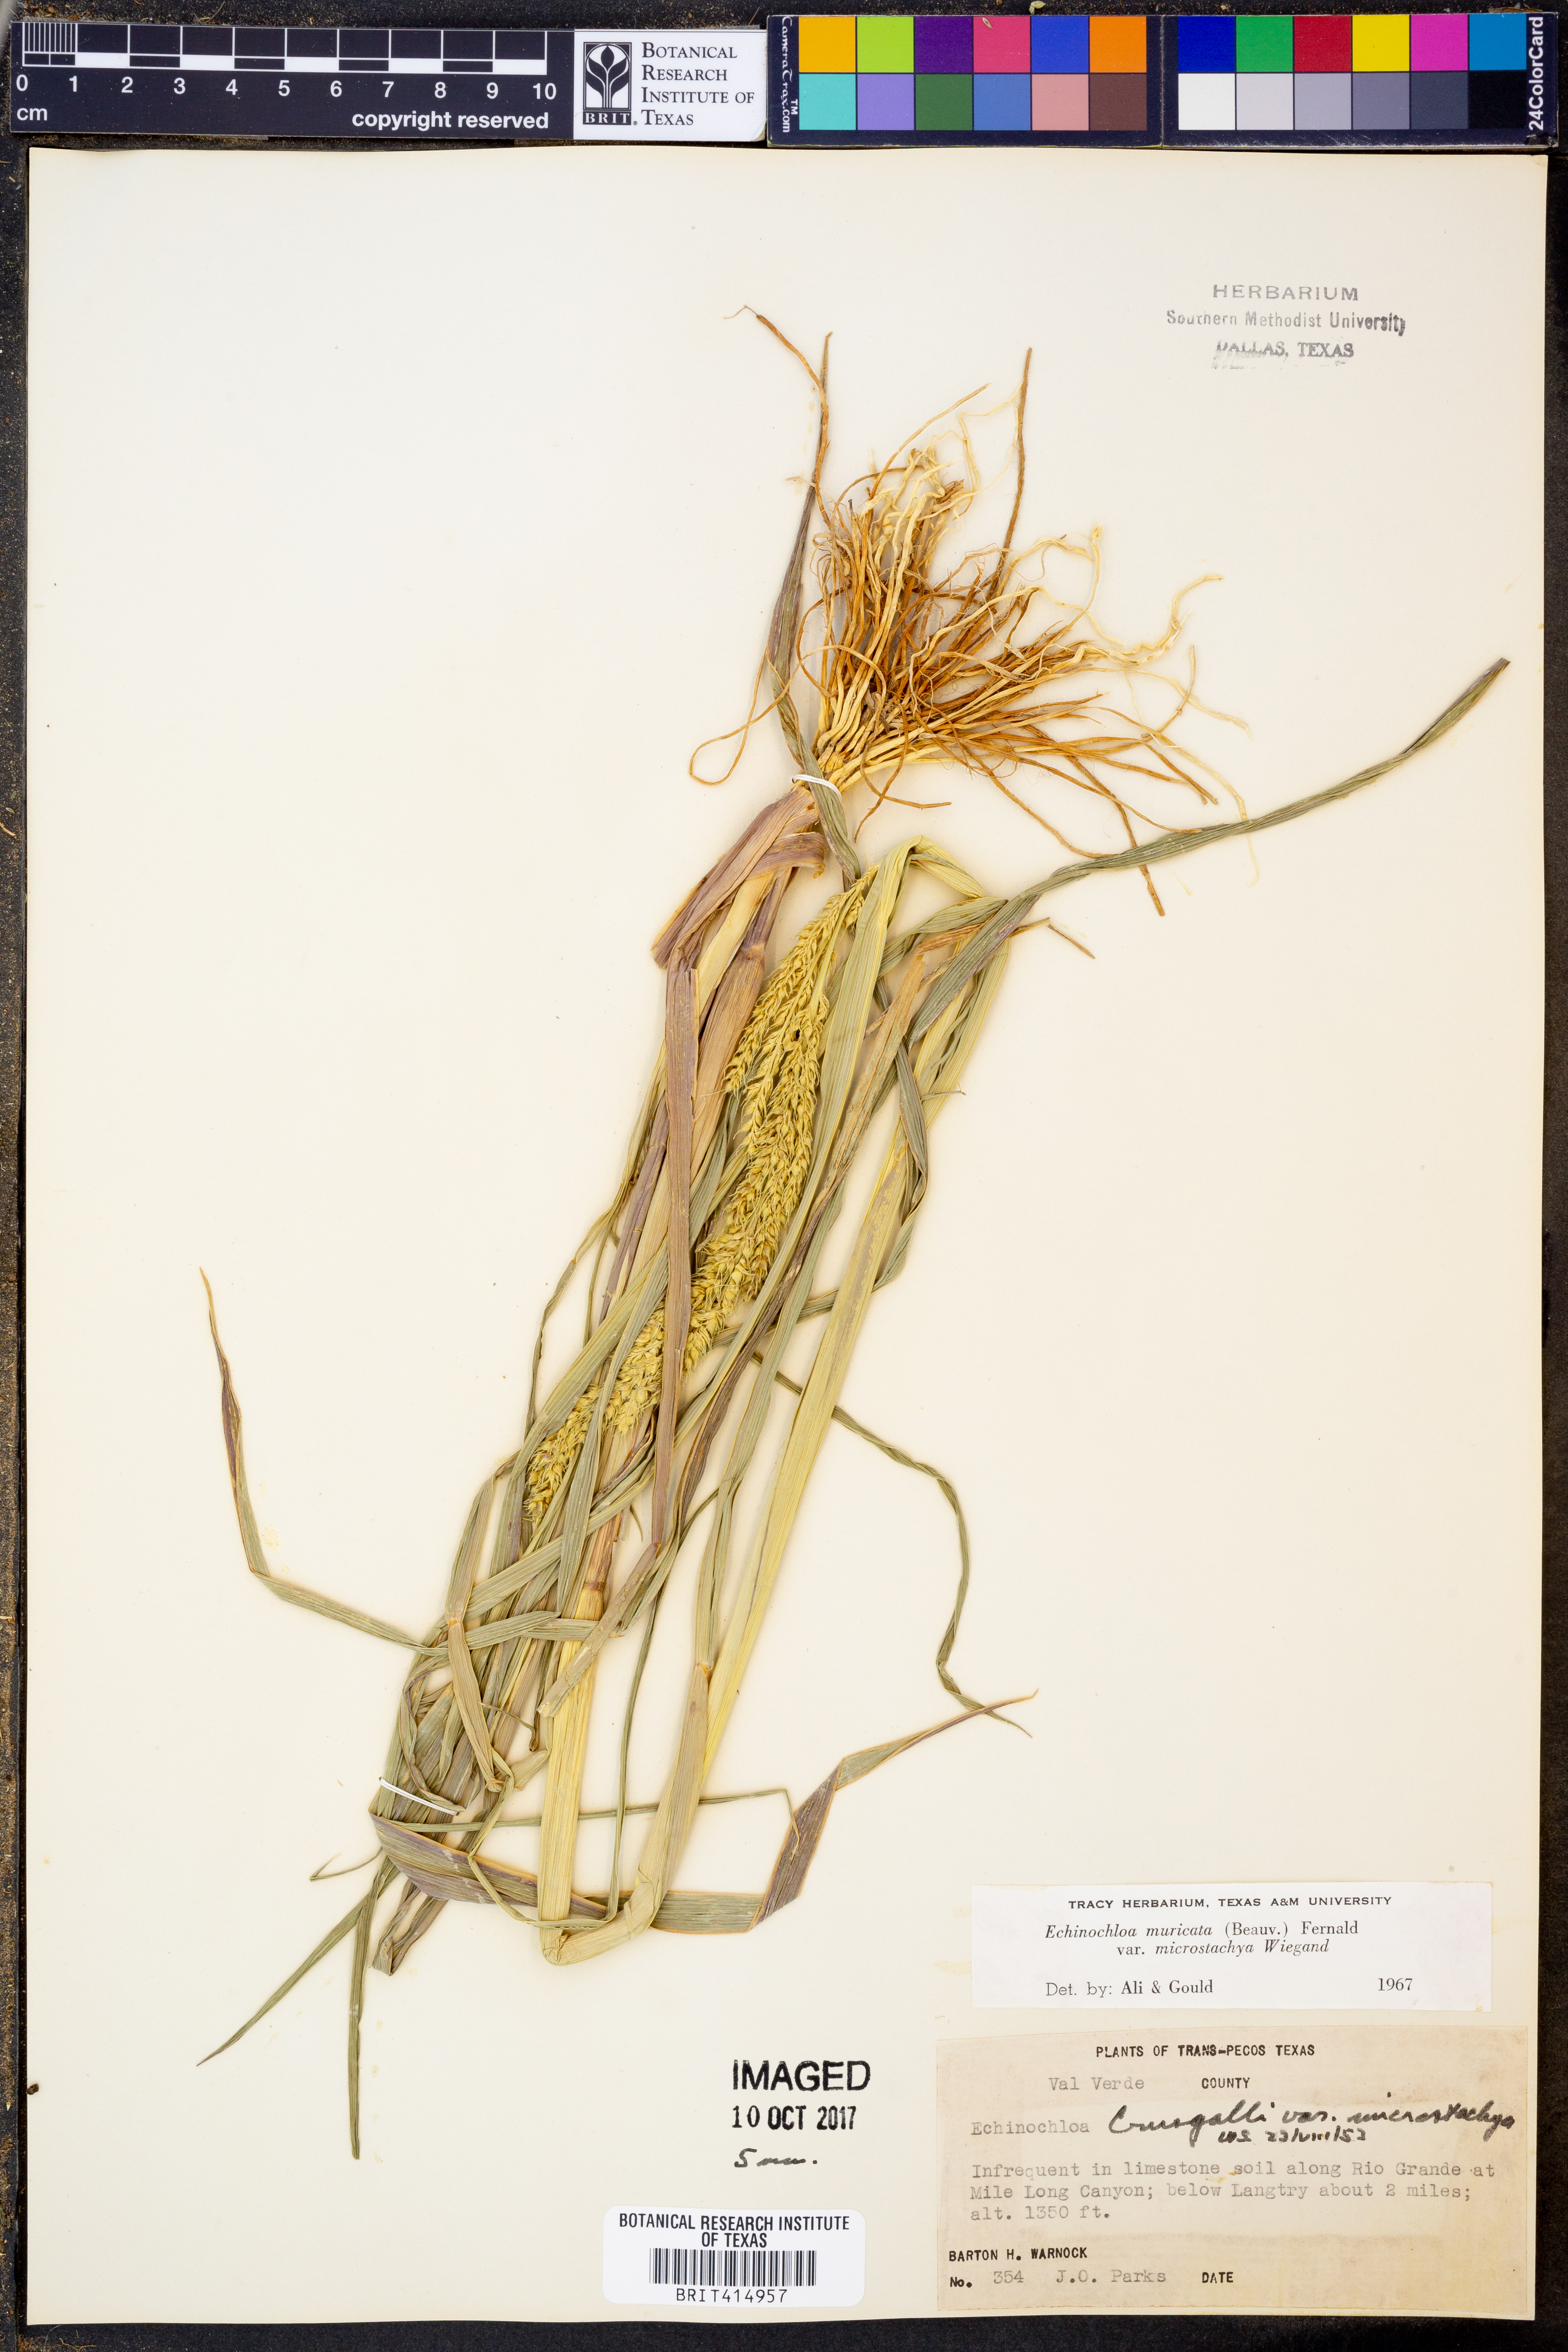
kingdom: Plantae
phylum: Tracheophyta
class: Liliopsida
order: Poales
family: Poaceae
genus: Echinochloa
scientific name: Echinochloa muricata
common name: American barnyard grass
